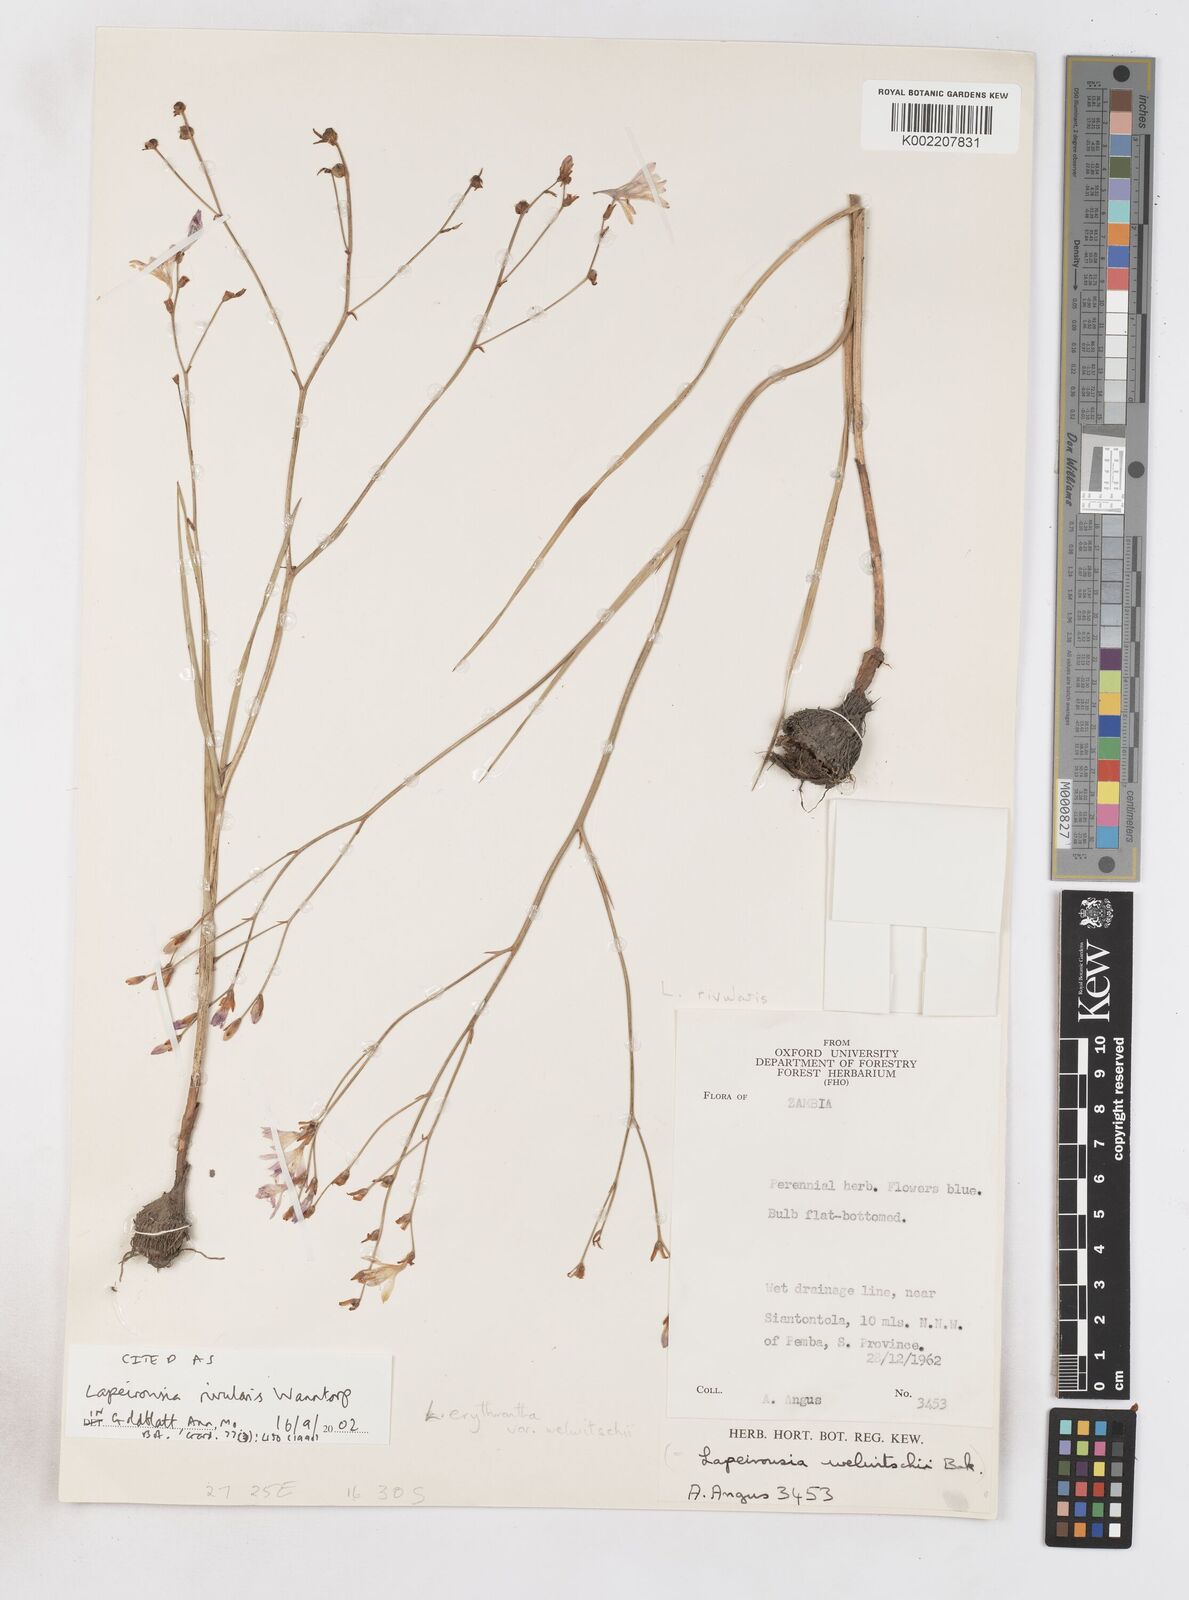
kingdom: Plantae
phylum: Tracheophyta
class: Liliopsida
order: Asparagales
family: Iridaceae
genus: Afrosolen
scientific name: Afrosolen rivularis
